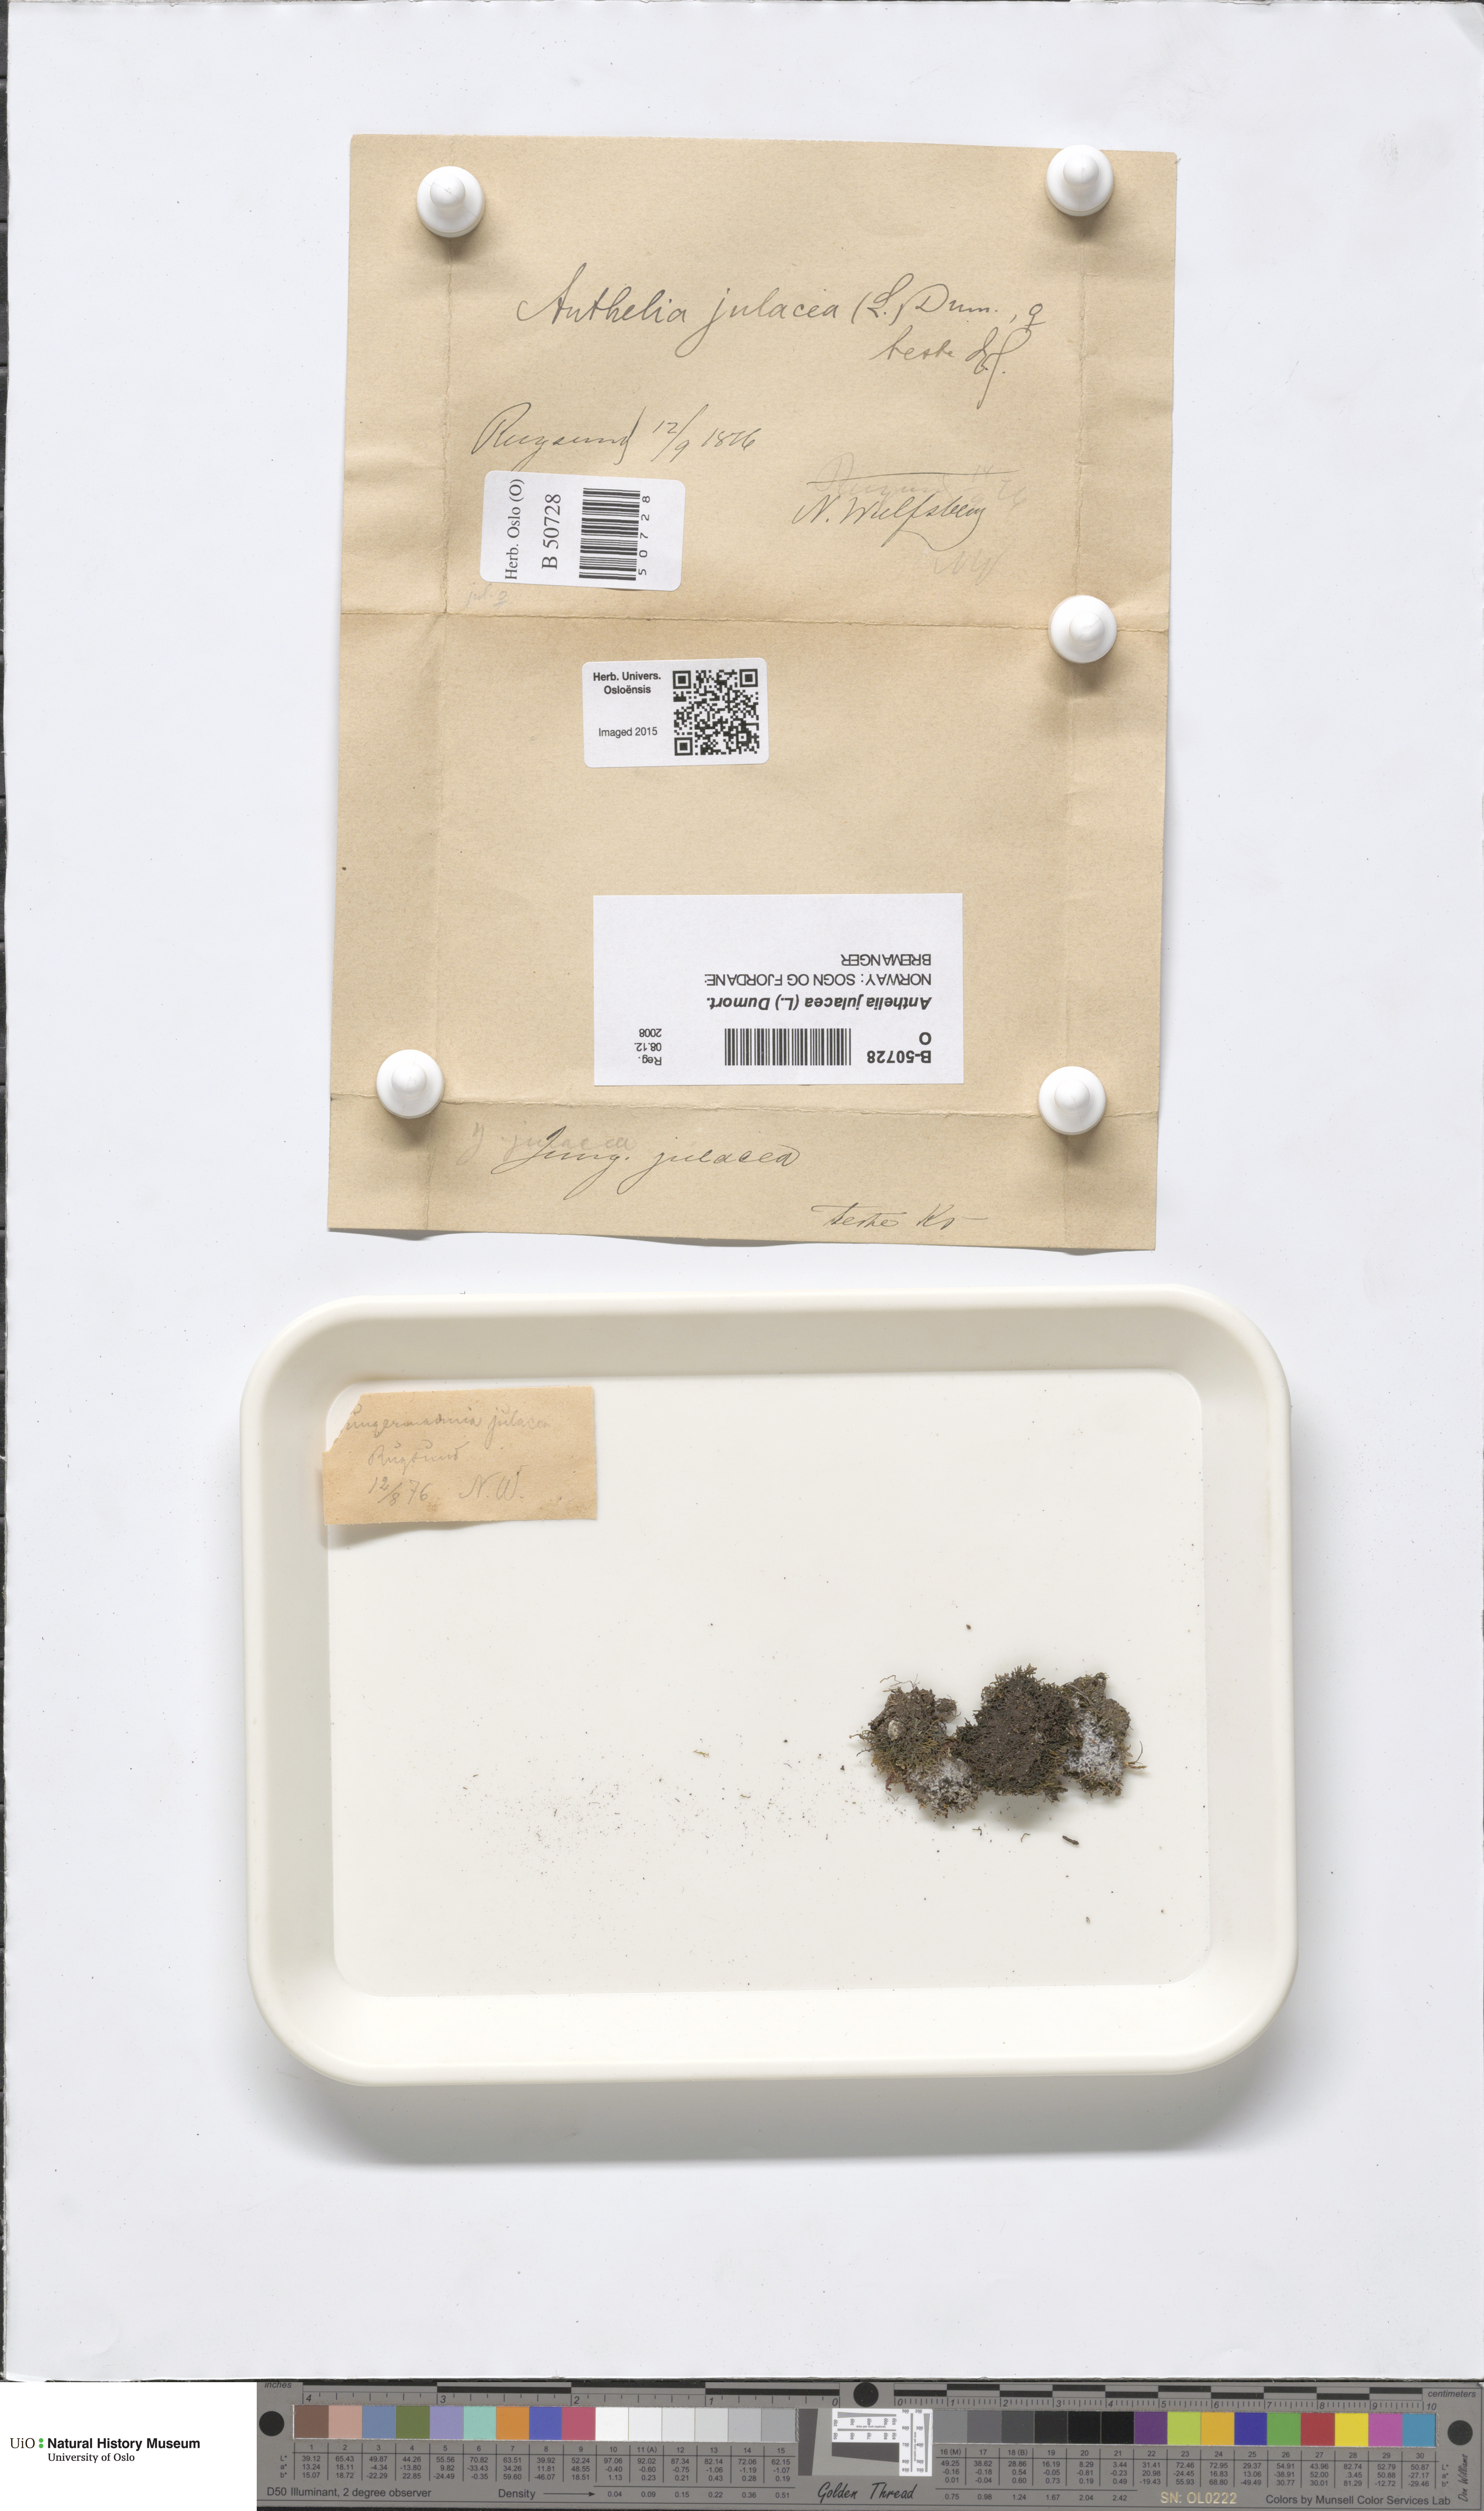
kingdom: Plantae
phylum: Marchantiophyta
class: Jungermanniopsida
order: Jungermanniales
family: Antheliaceae
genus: Anthelia
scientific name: Anthelia julacea
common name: Alpine silverwort
